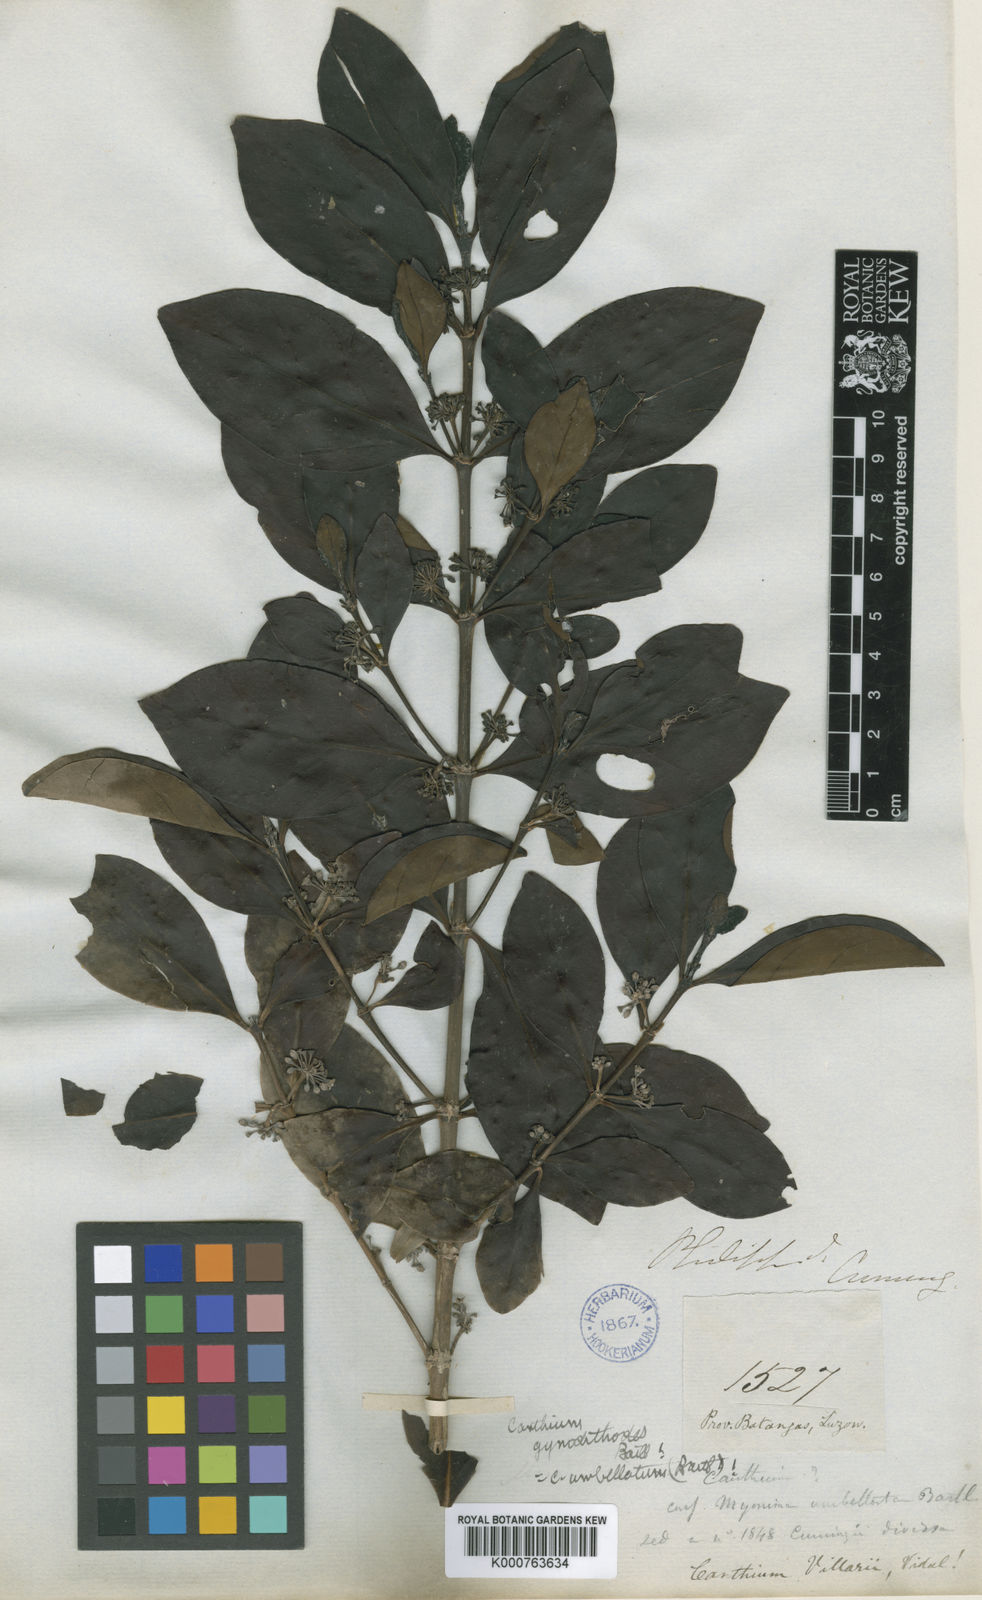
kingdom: Plantae
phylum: Tracheophyta
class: Magnoliopsida
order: Gentianales
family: Rubiaceae
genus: Canthium
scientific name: Canthium villarii
